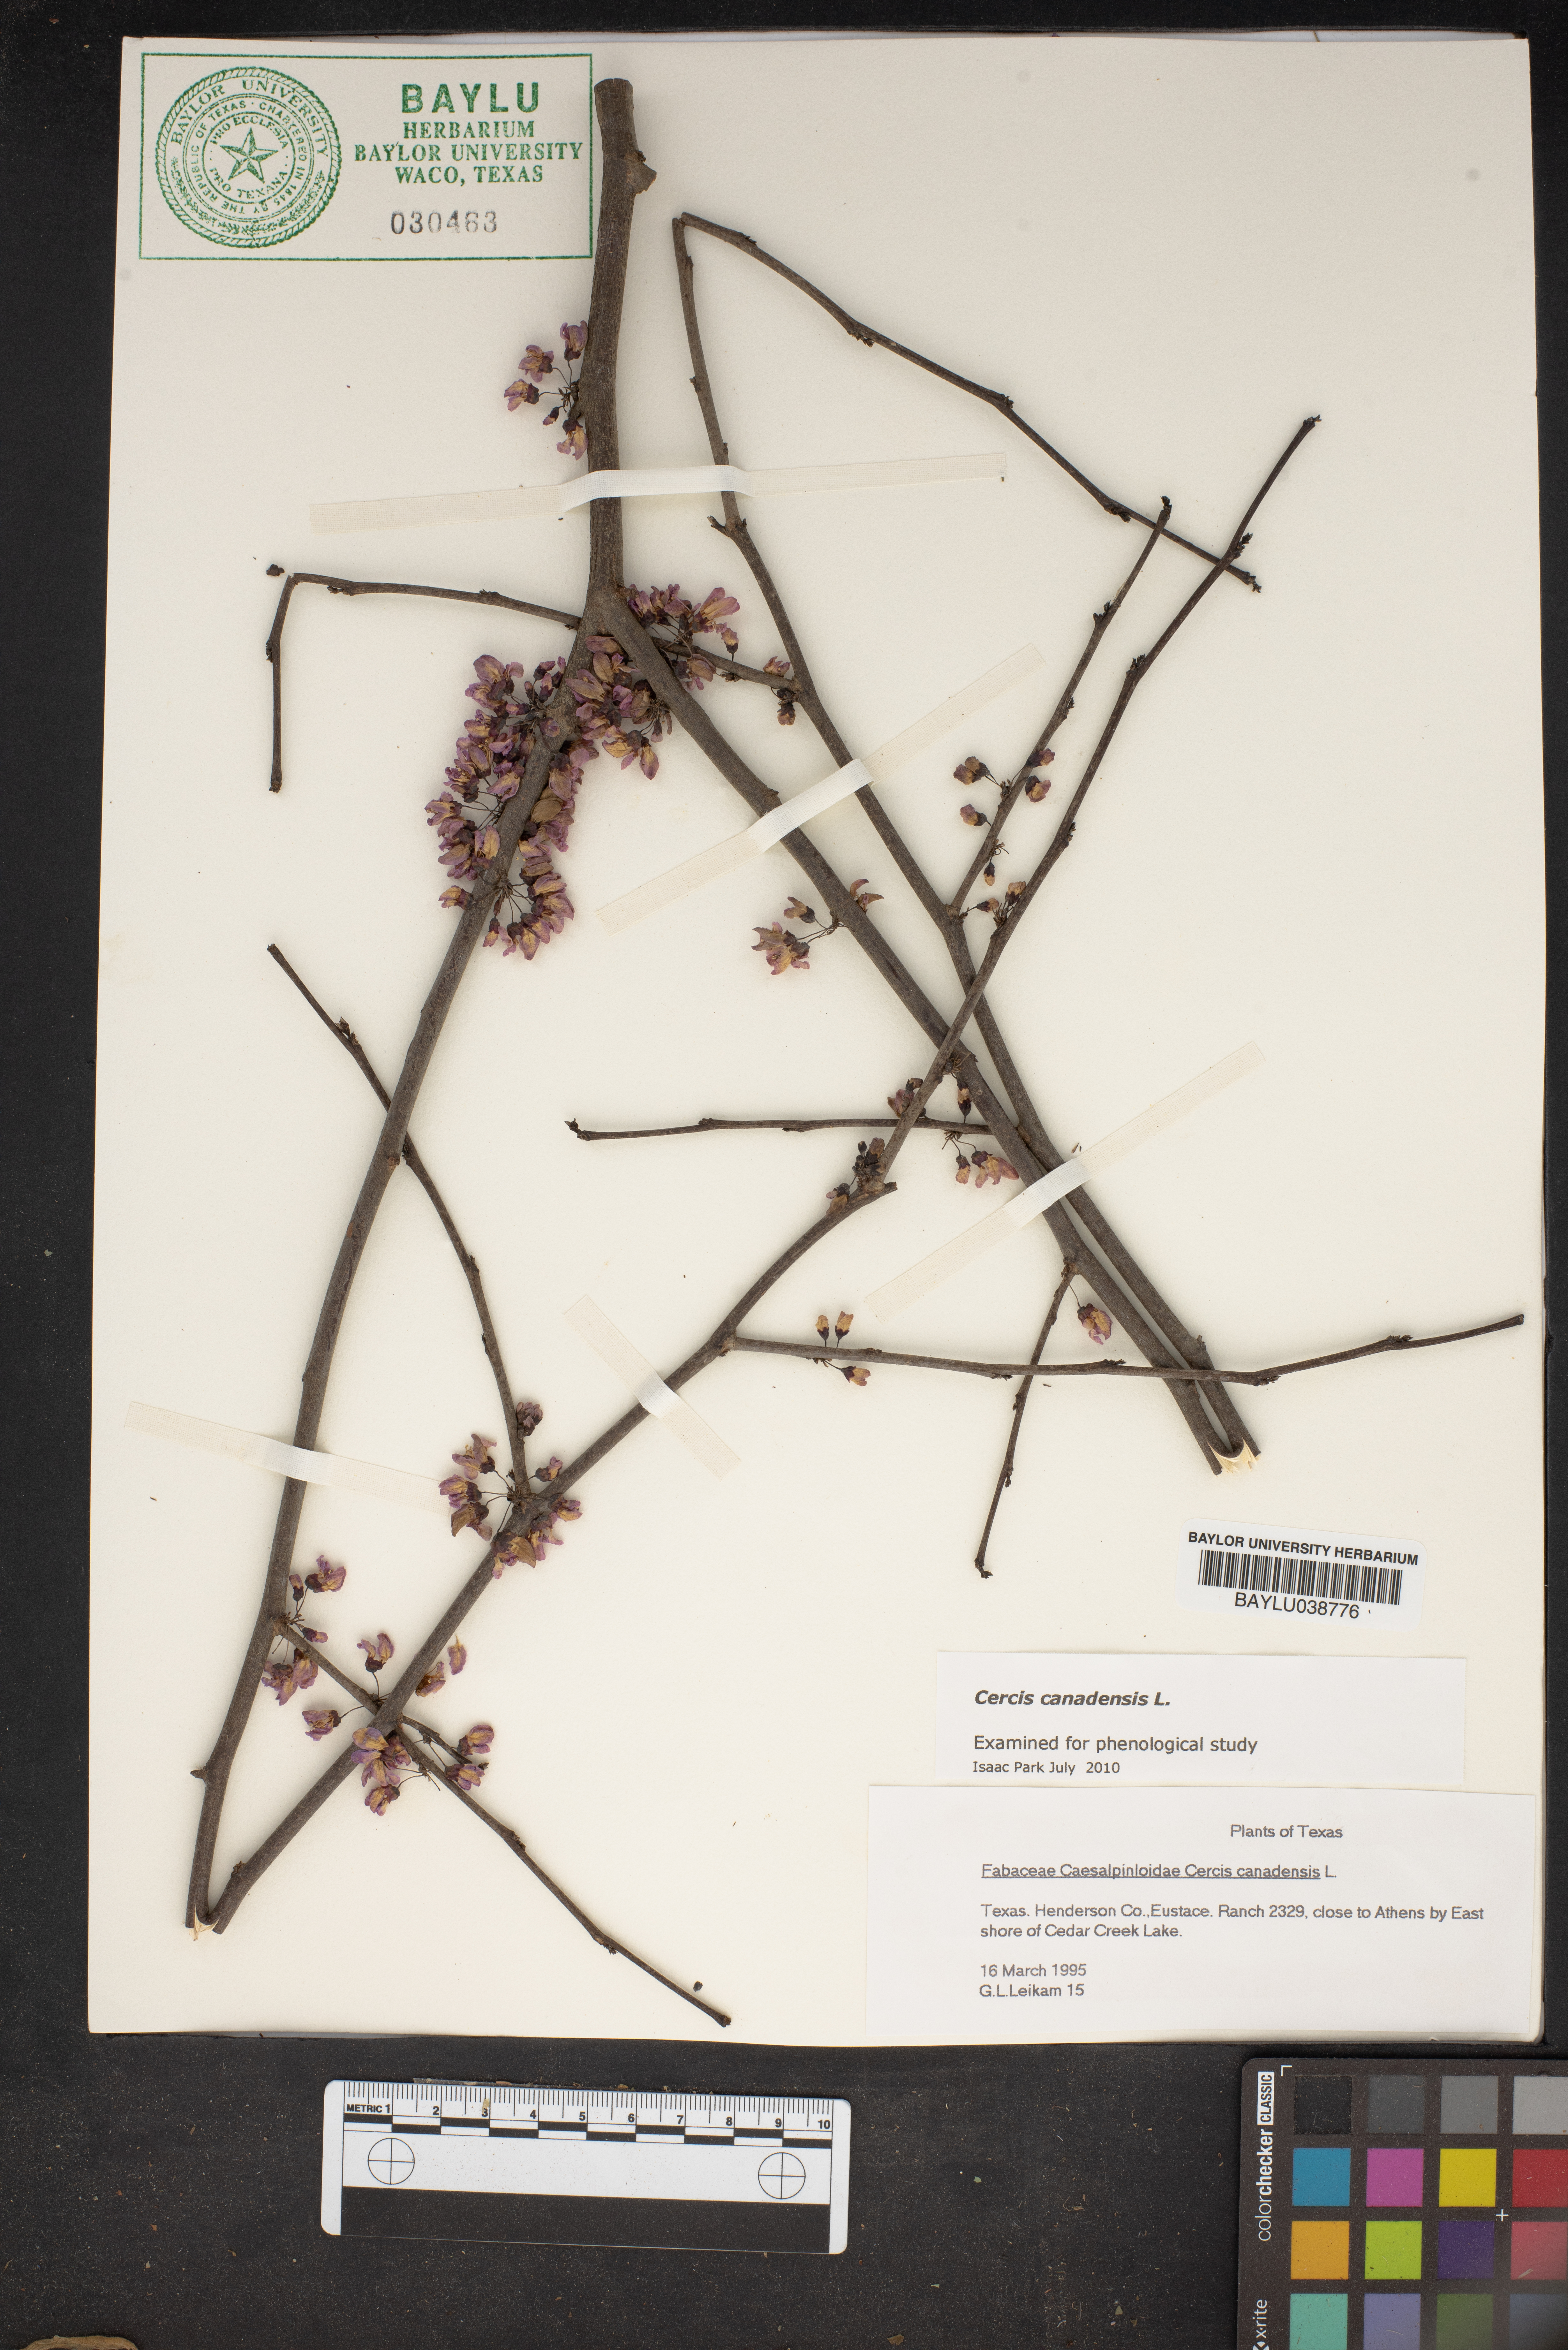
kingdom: Plantae
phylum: Tracheophyta
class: Magnoliopsida
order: Fabales
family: Fabaceae
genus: Cercis
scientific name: Cercis canadensis
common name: Eastern redbud
